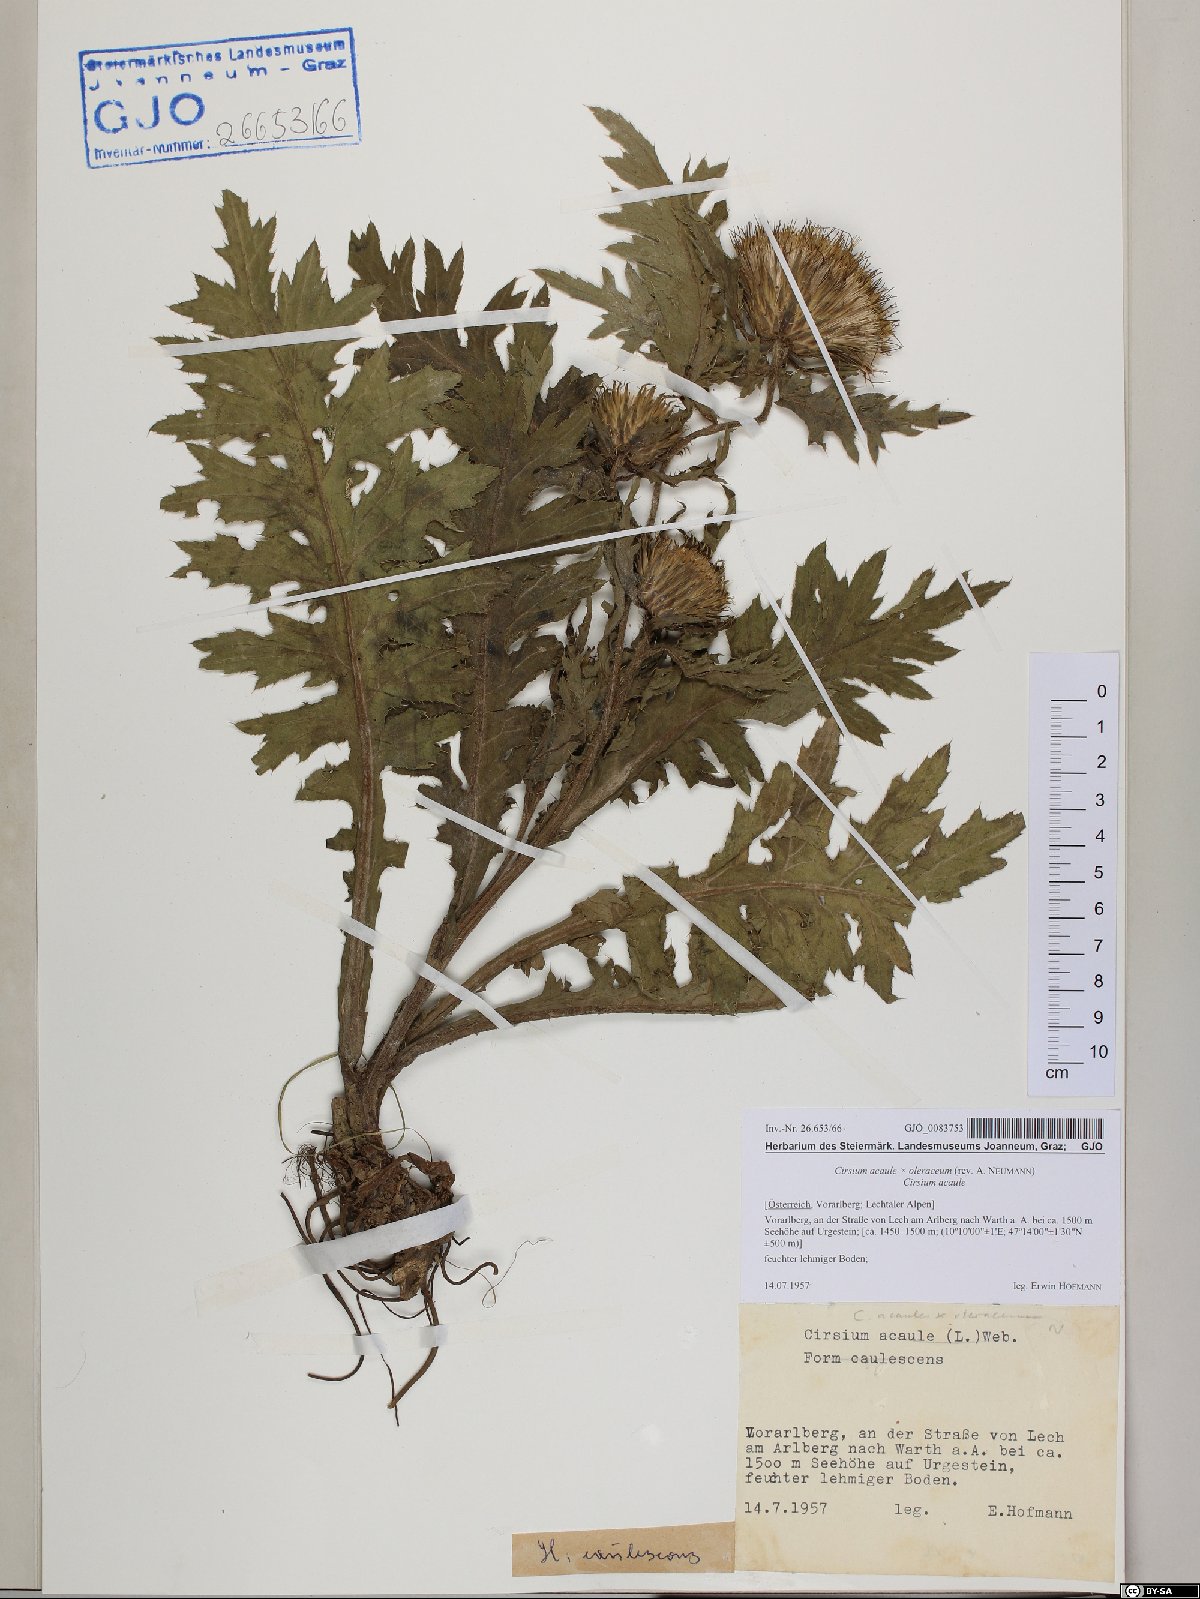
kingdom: Plantae
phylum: Tracheophyta
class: Magnoliopsida
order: Asterales
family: Asteraceae
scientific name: Asteraceae
